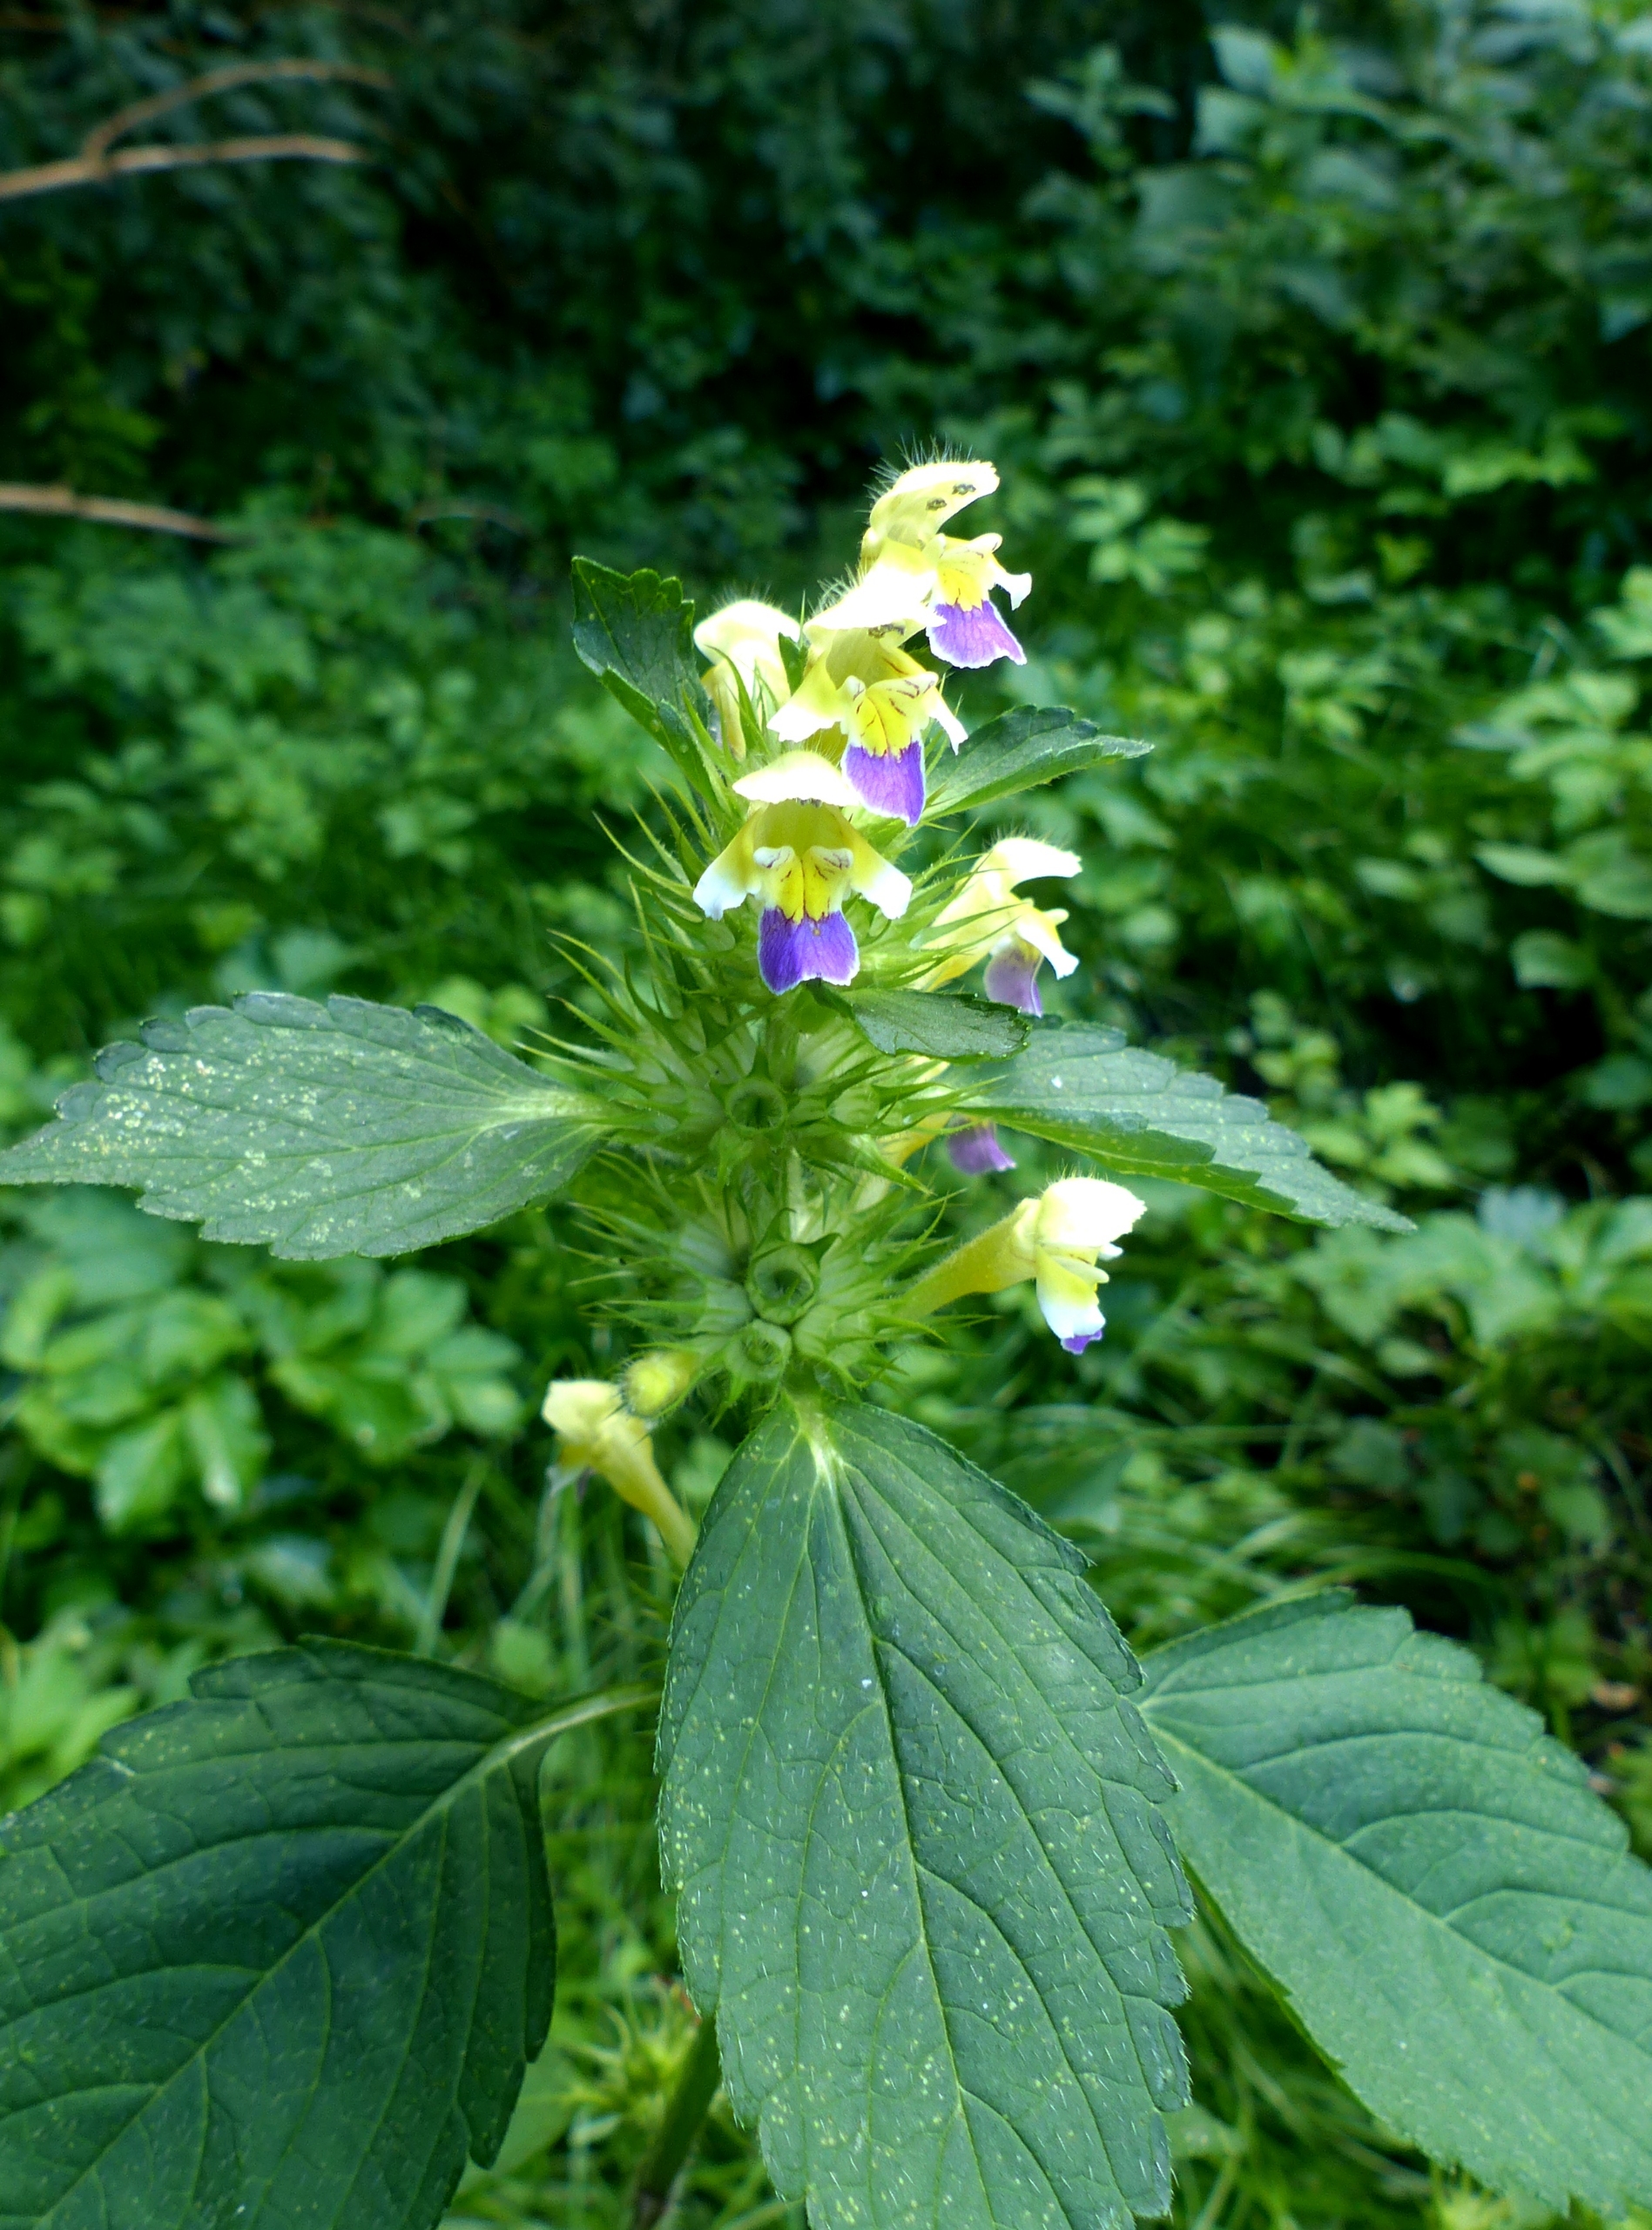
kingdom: Plantae
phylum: Tracheophyta
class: Magnoliopsida
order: Lamiales
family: Lamiaceae
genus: Galeopsis
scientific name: Galeopsis speciosa
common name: Hamp-hanekro
